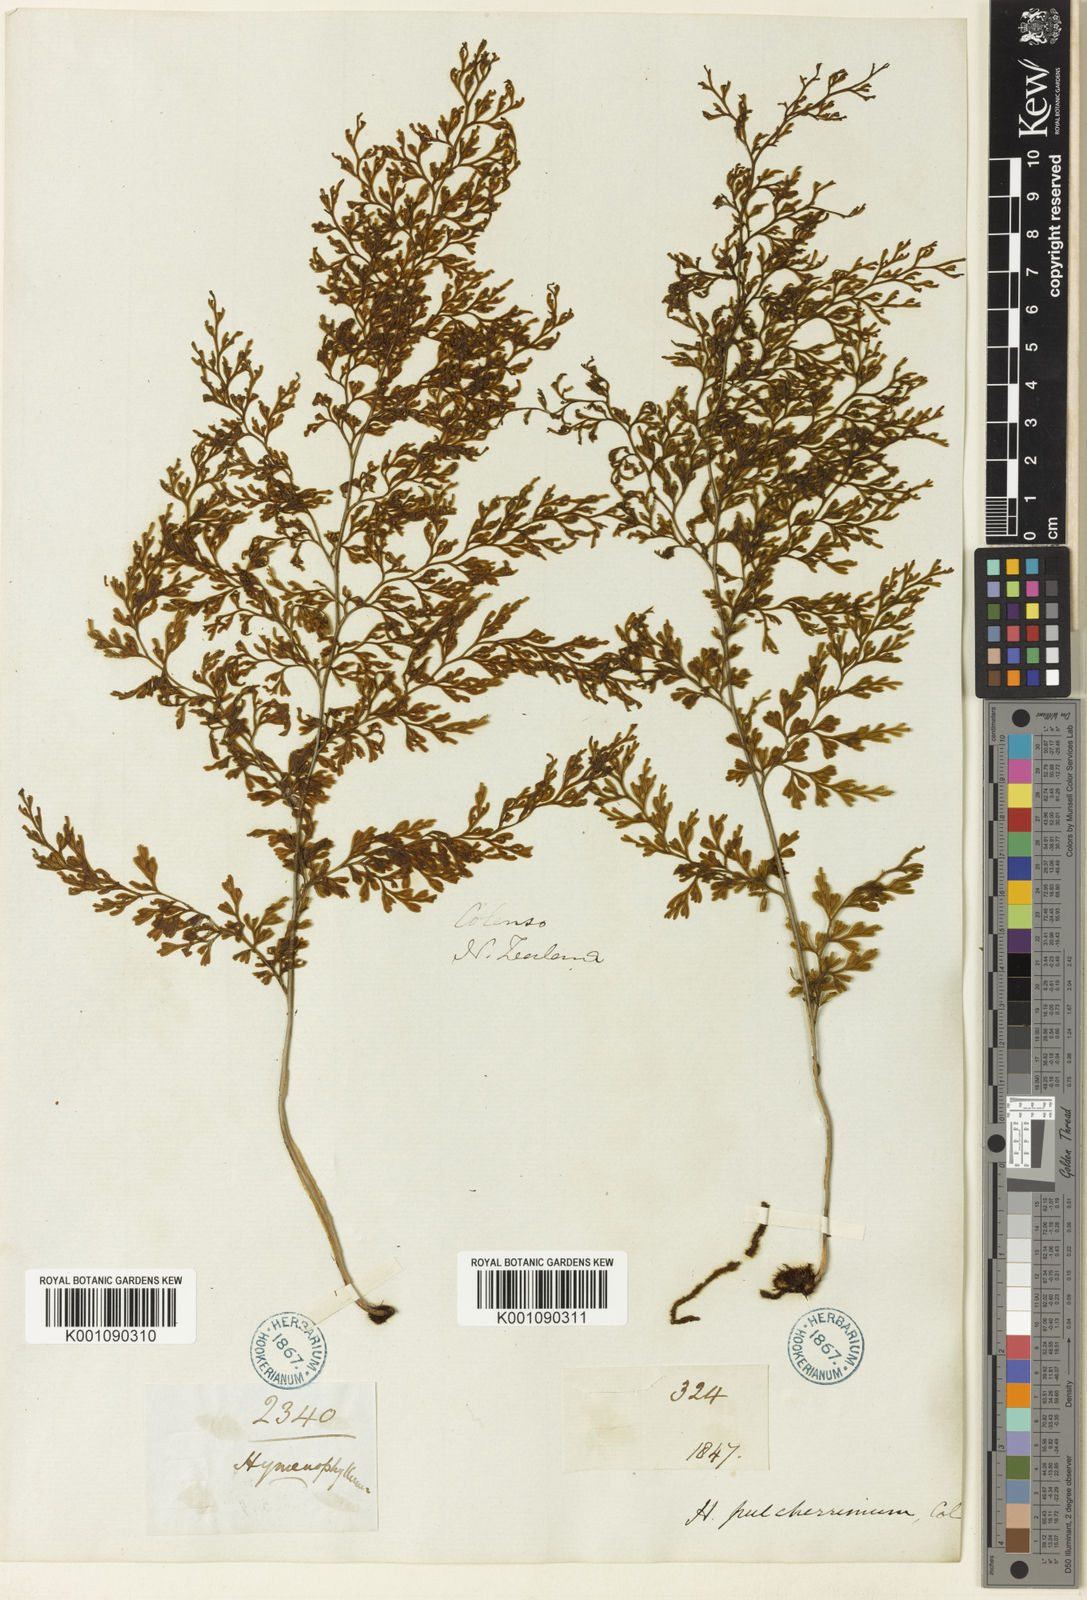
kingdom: Plantae
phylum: Tracheophyta
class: Polypodiopsida
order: Hymenophyllales
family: Hymenophyllaceae
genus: Hymenophyllum
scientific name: Hymenophyllum pulcherrimum
